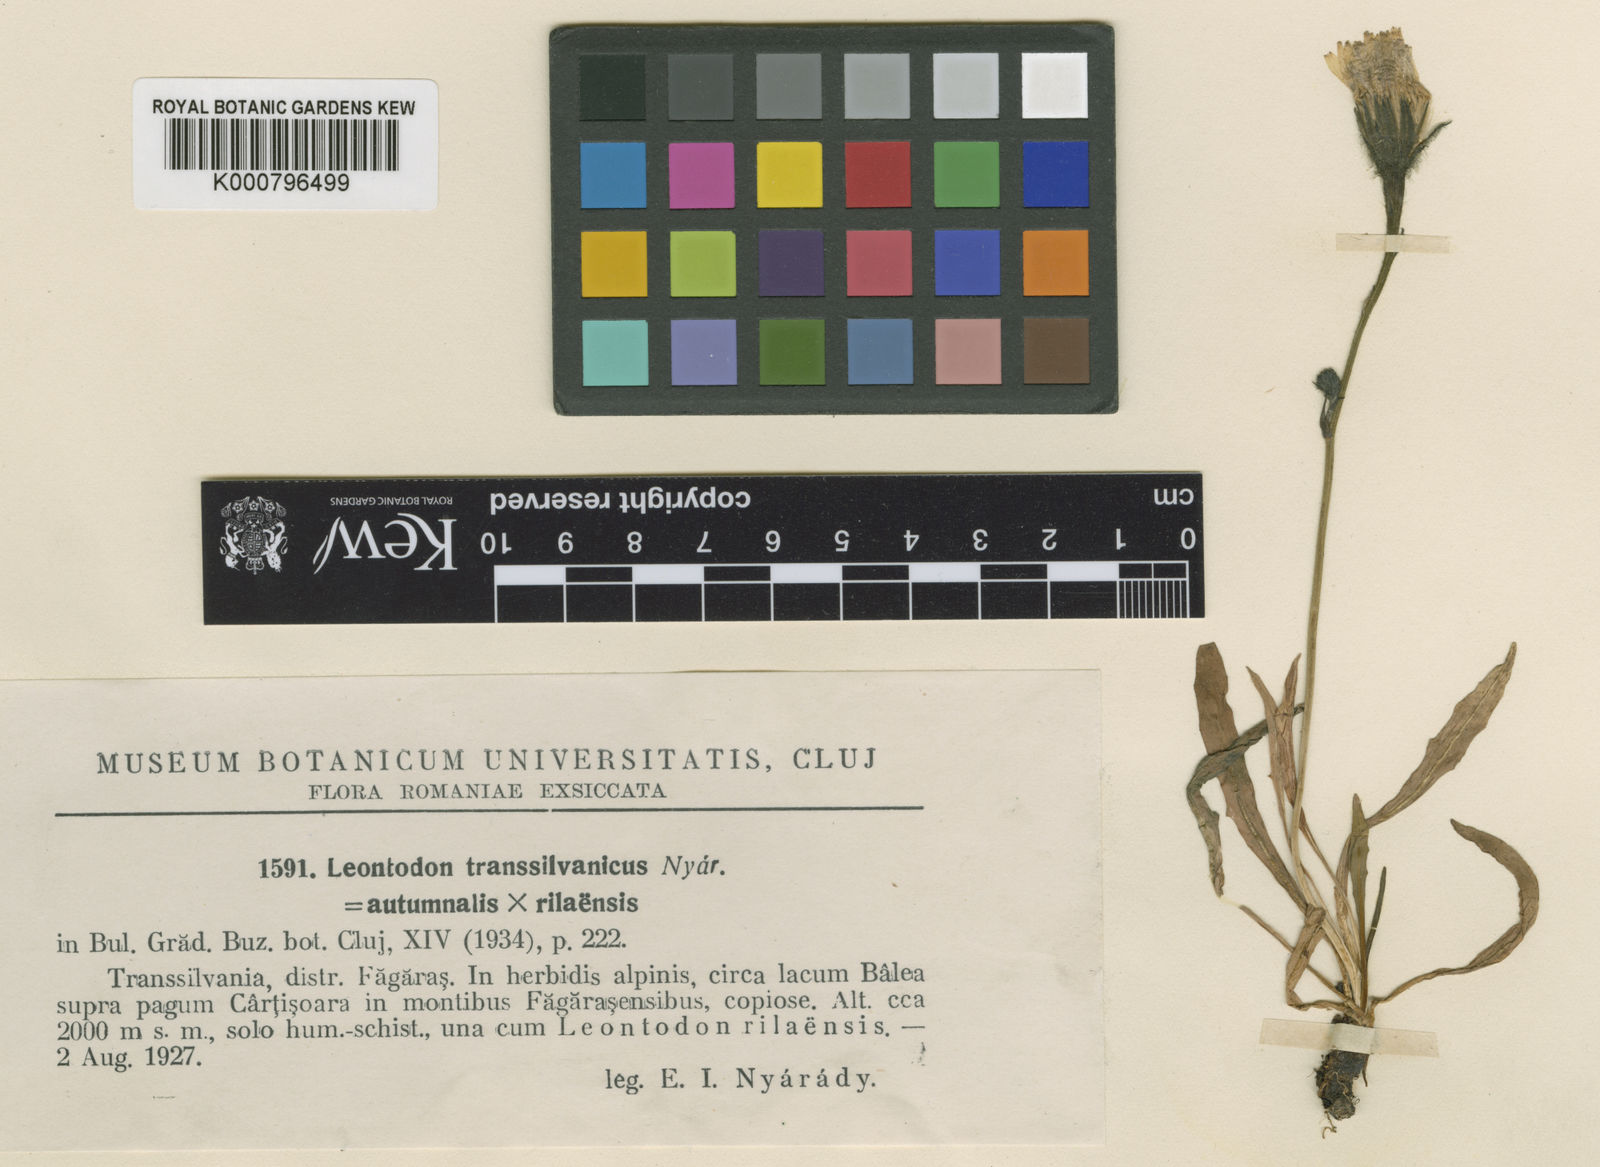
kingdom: Plantae
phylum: Tracheophyta
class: Magnoliopsida
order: Asterales
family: Asteraceae
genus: Leontodon
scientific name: Leontodon
